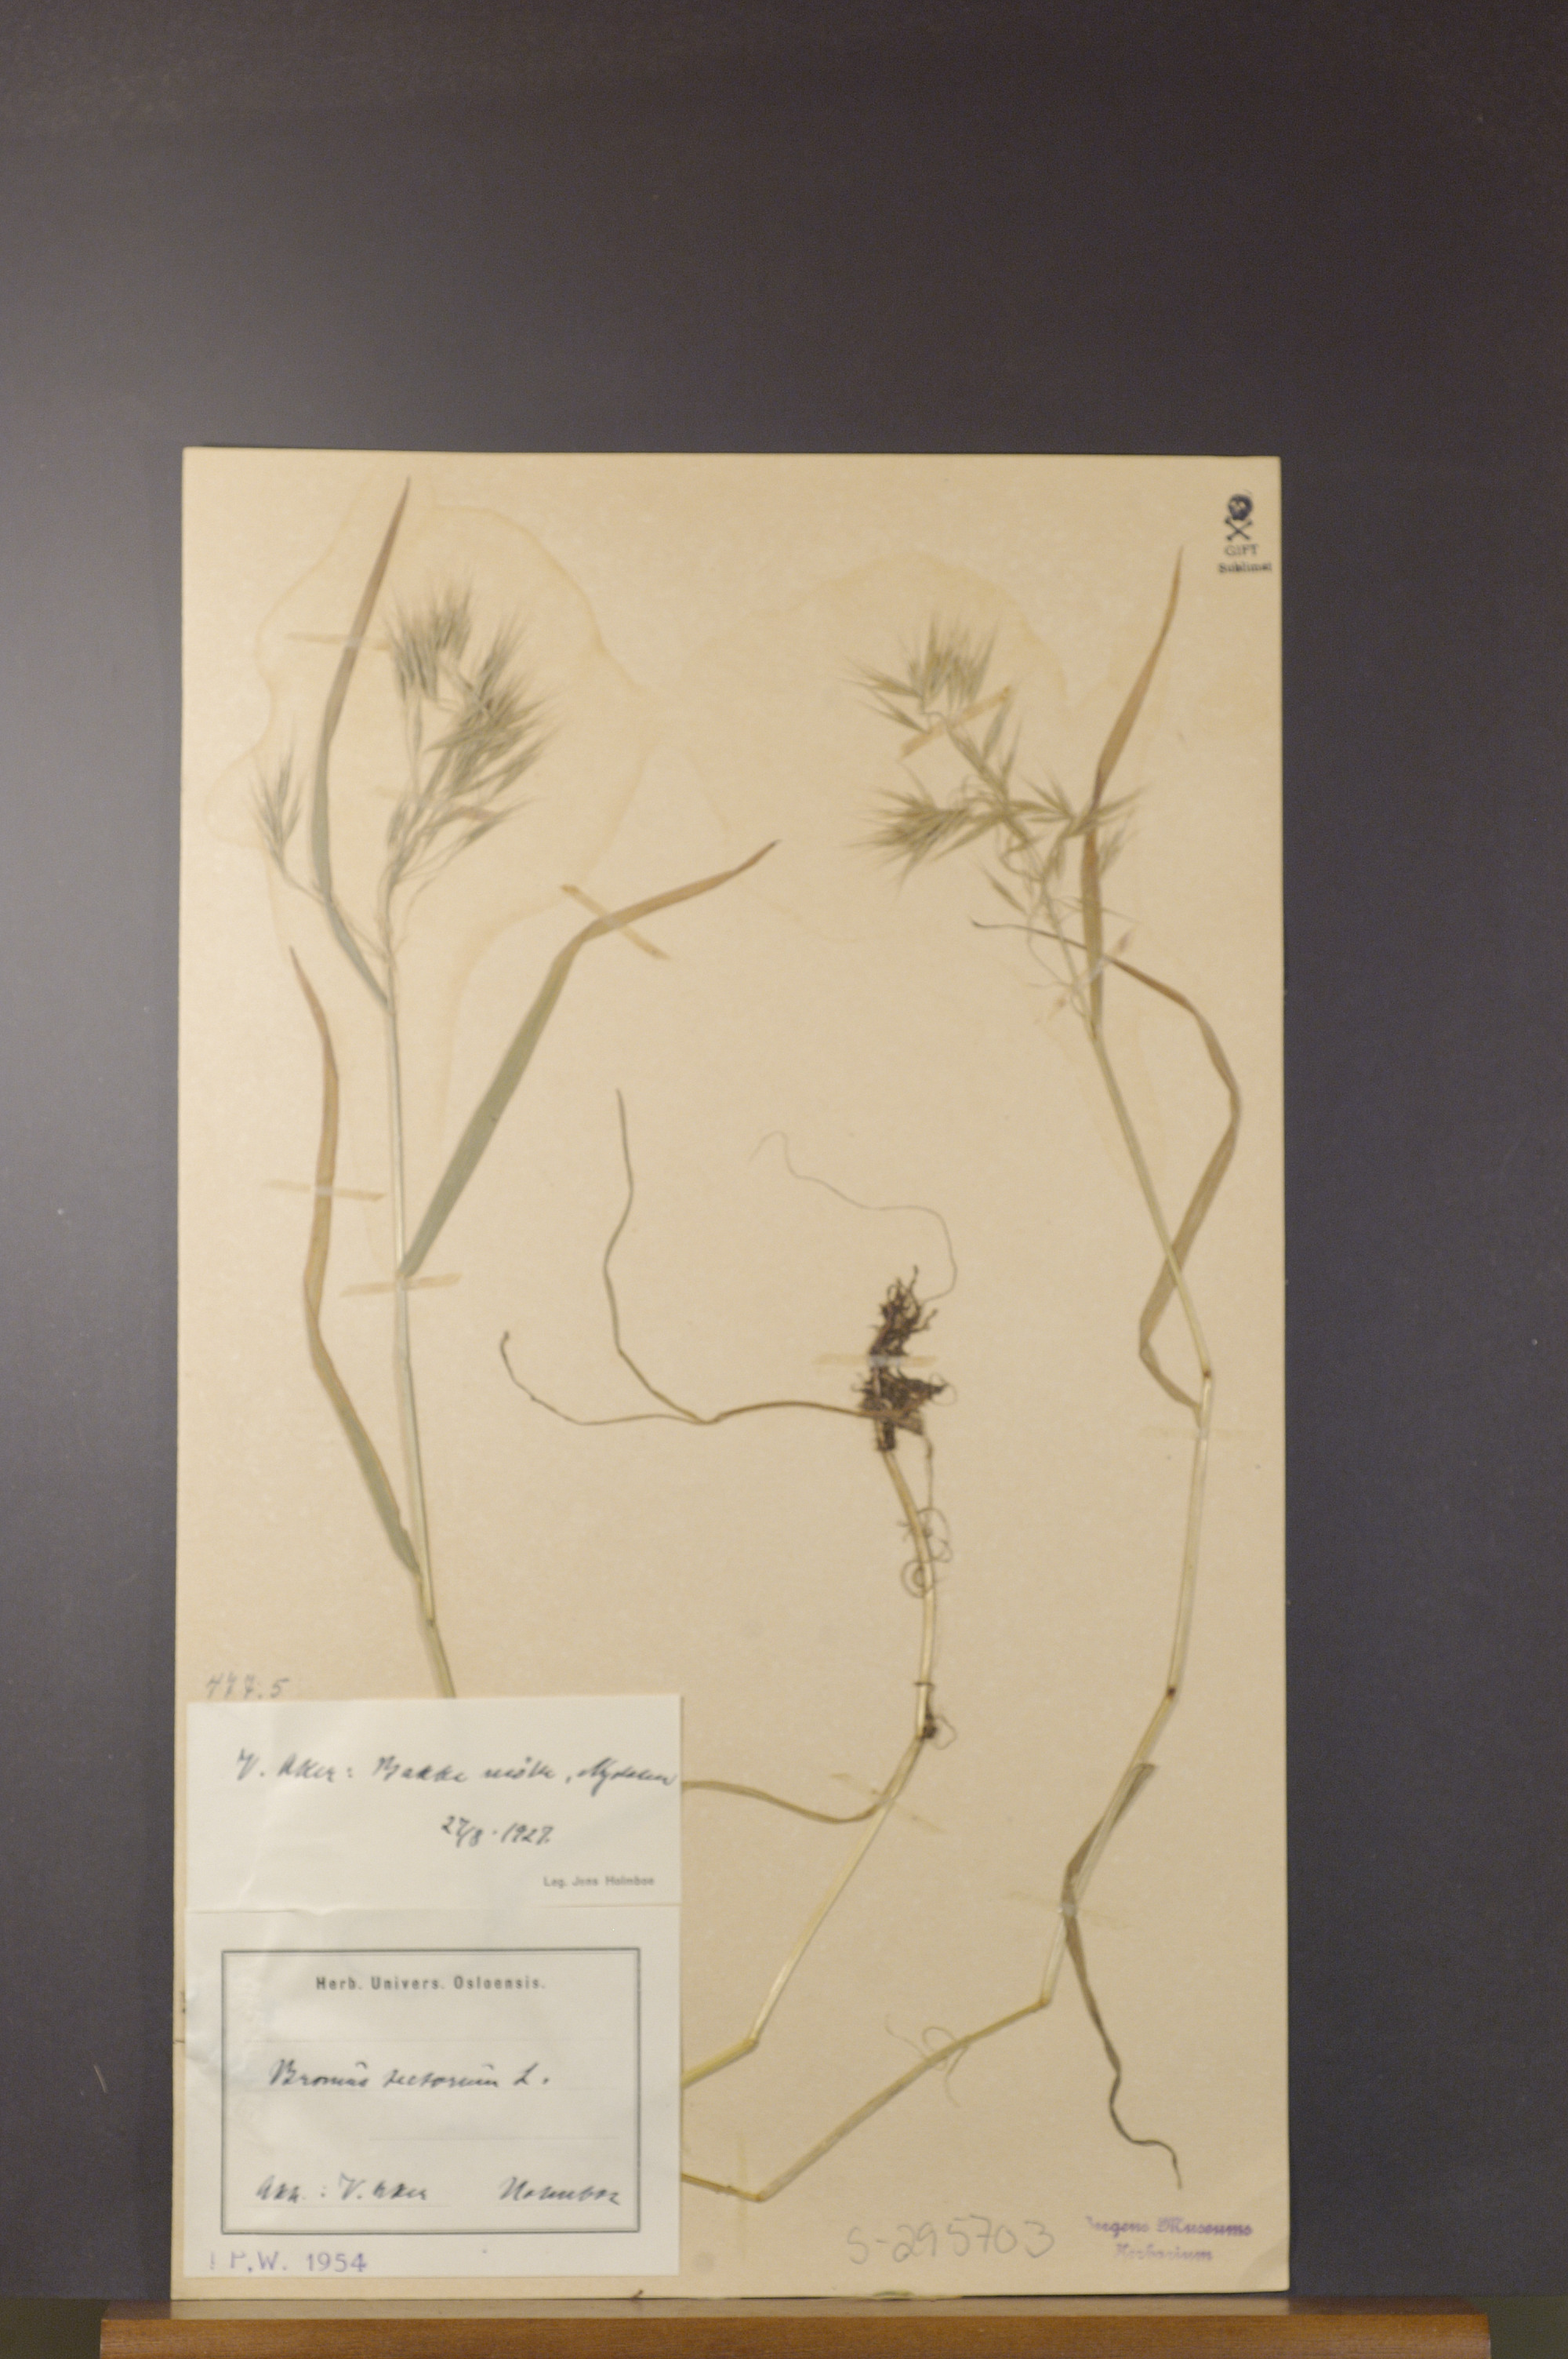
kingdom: Plantae
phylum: Tracheophyta
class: Liliopsida
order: Poales
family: Poaceae
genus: Bromus
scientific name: Bromus tectorum
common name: Cheatgrass
